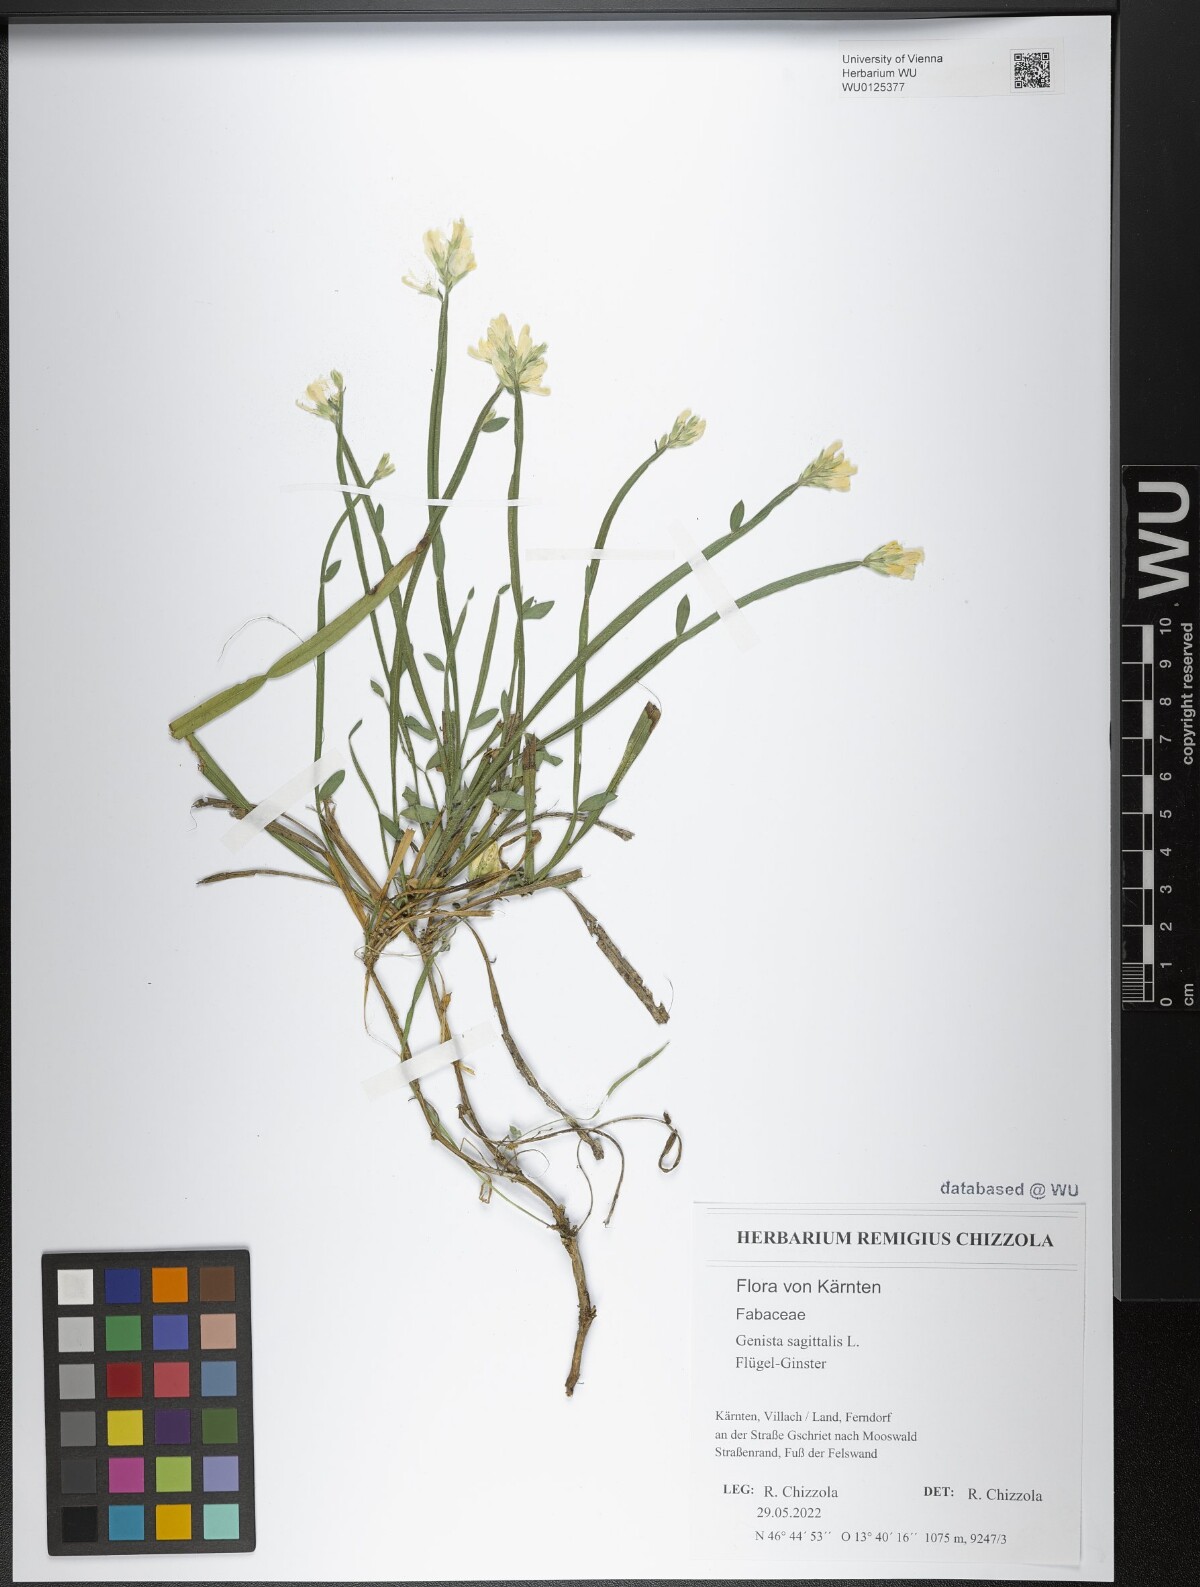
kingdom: Plantae
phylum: Tracheophyta
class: Magnoliopsida
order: Fabales
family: Fabaceae
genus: Genista
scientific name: Genista sagittalis
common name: Winged greenweed
